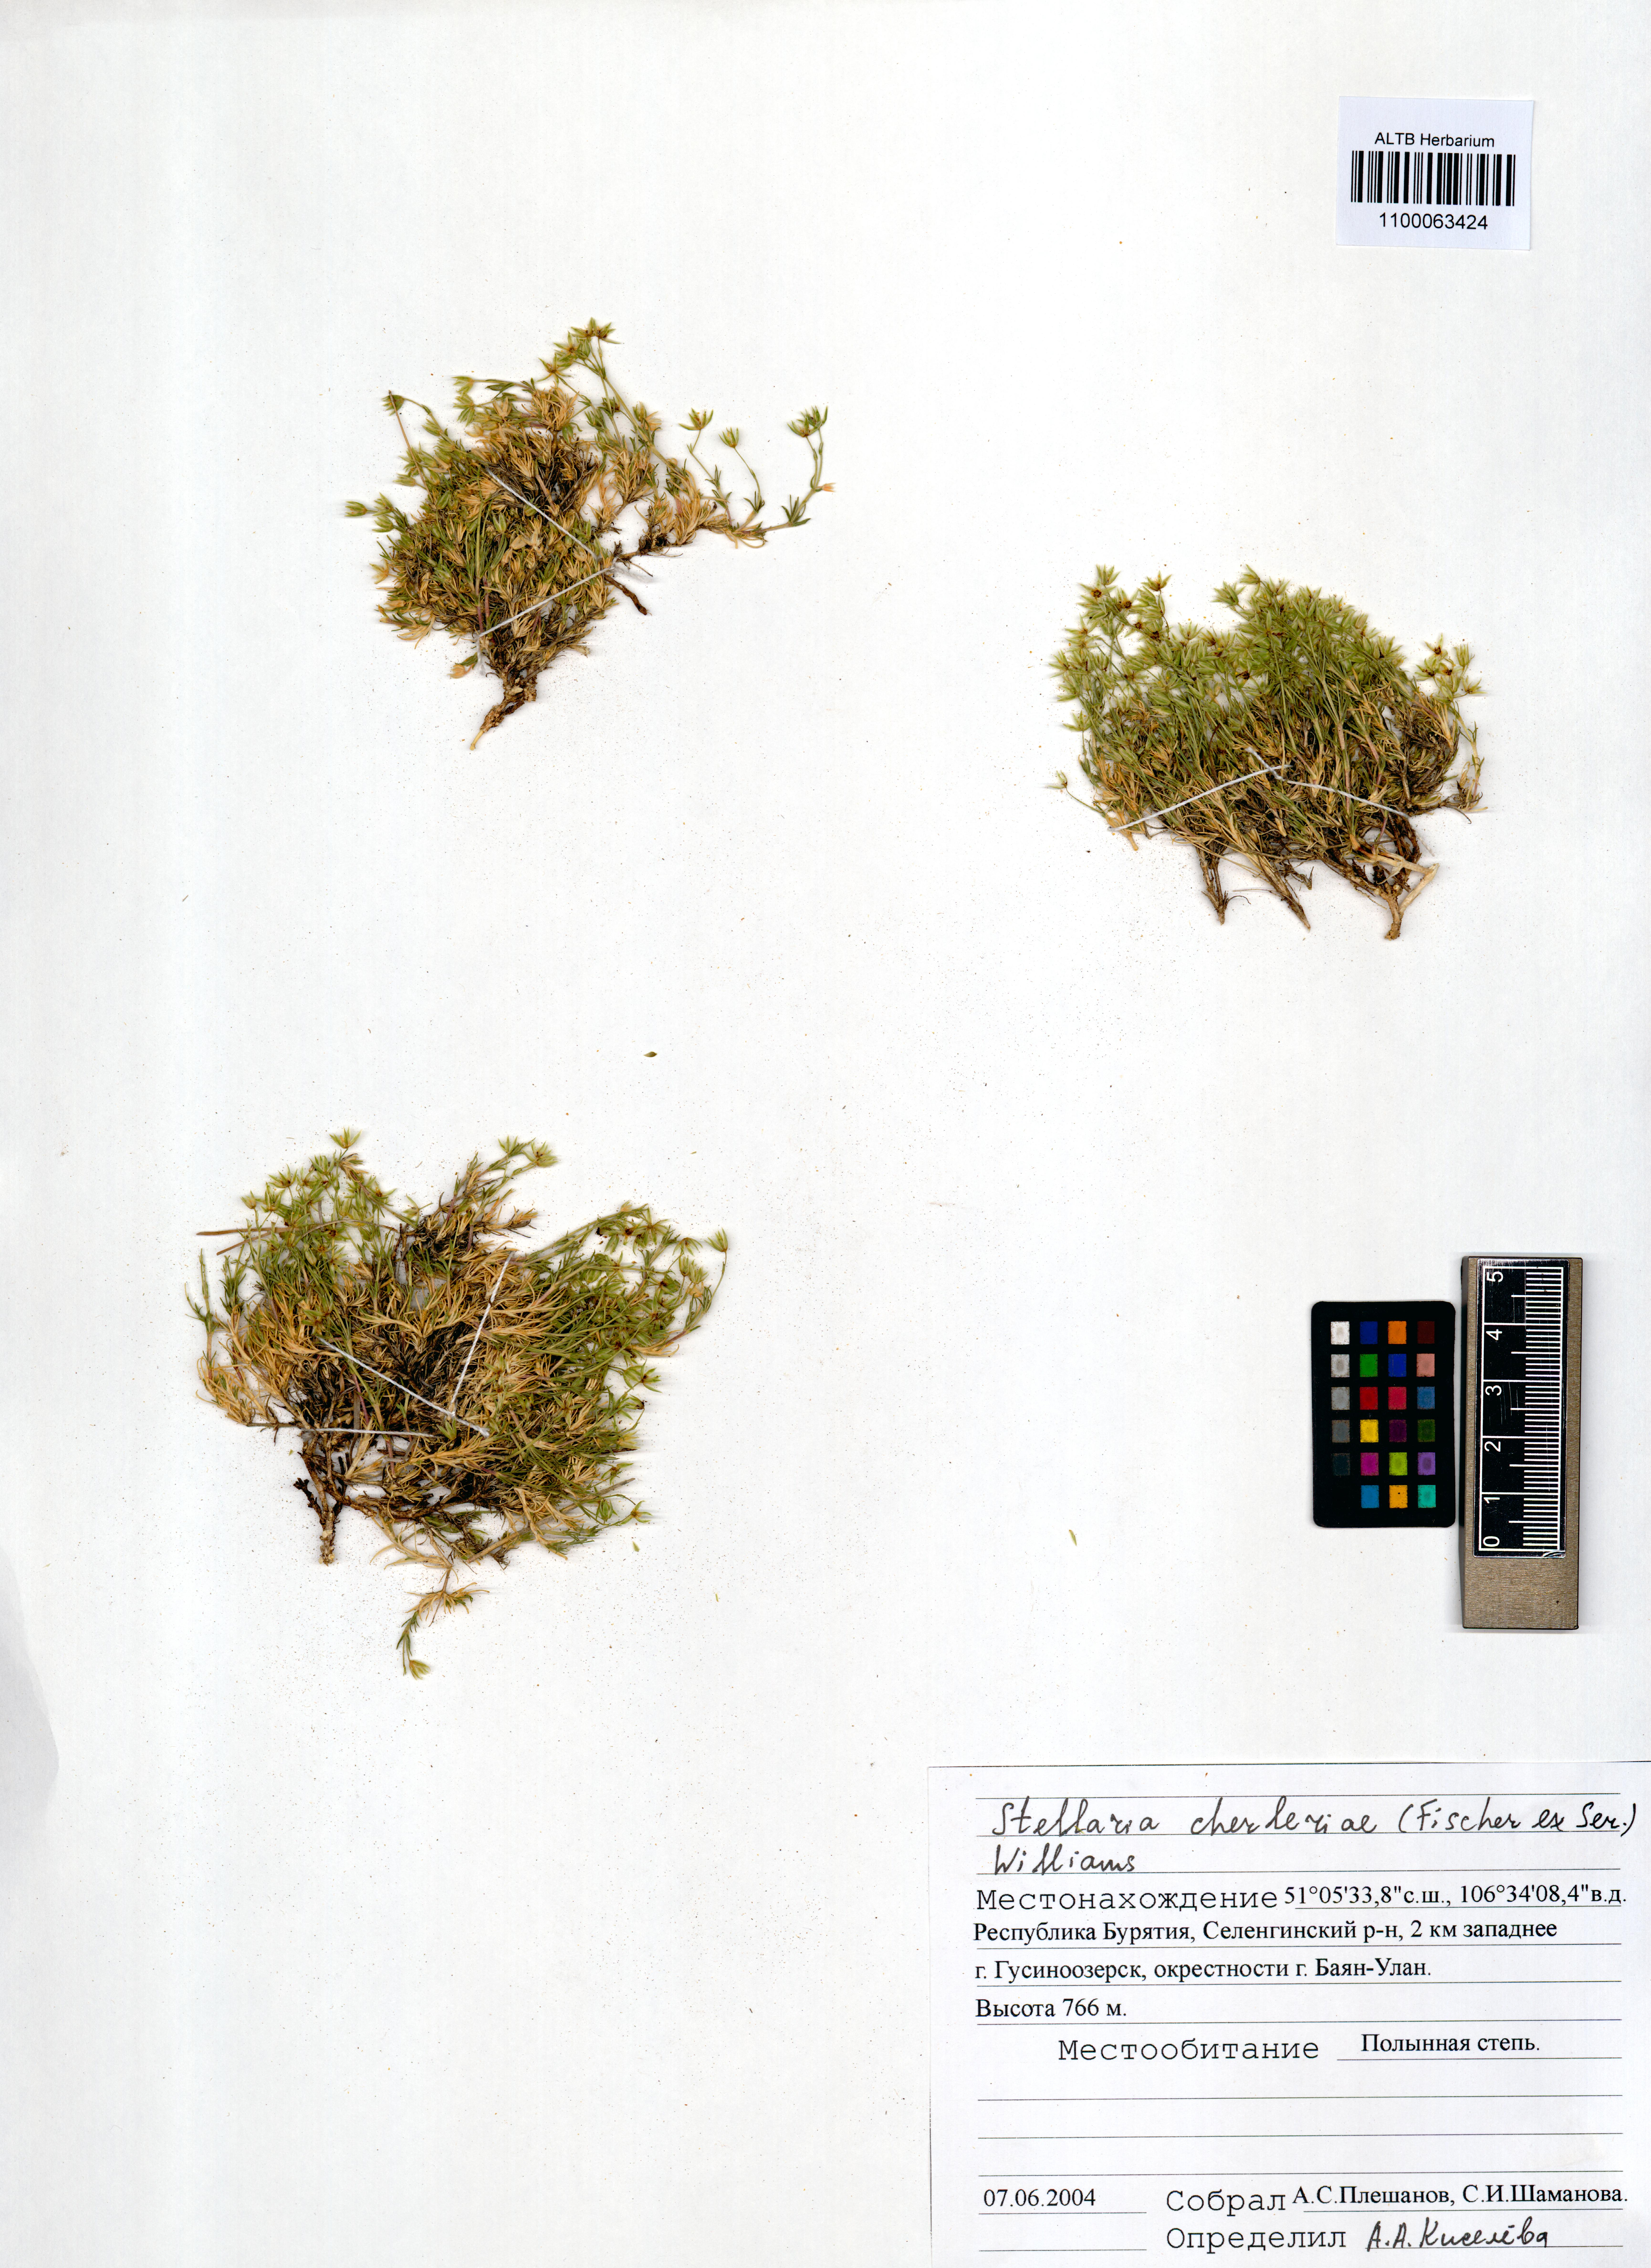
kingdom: Plantae
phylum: Tracheophyta
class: Magnoliopsida
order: Caryophyllales
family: Caryophyllaceae
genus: Adenonema
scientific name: Adenonema cherleriae
